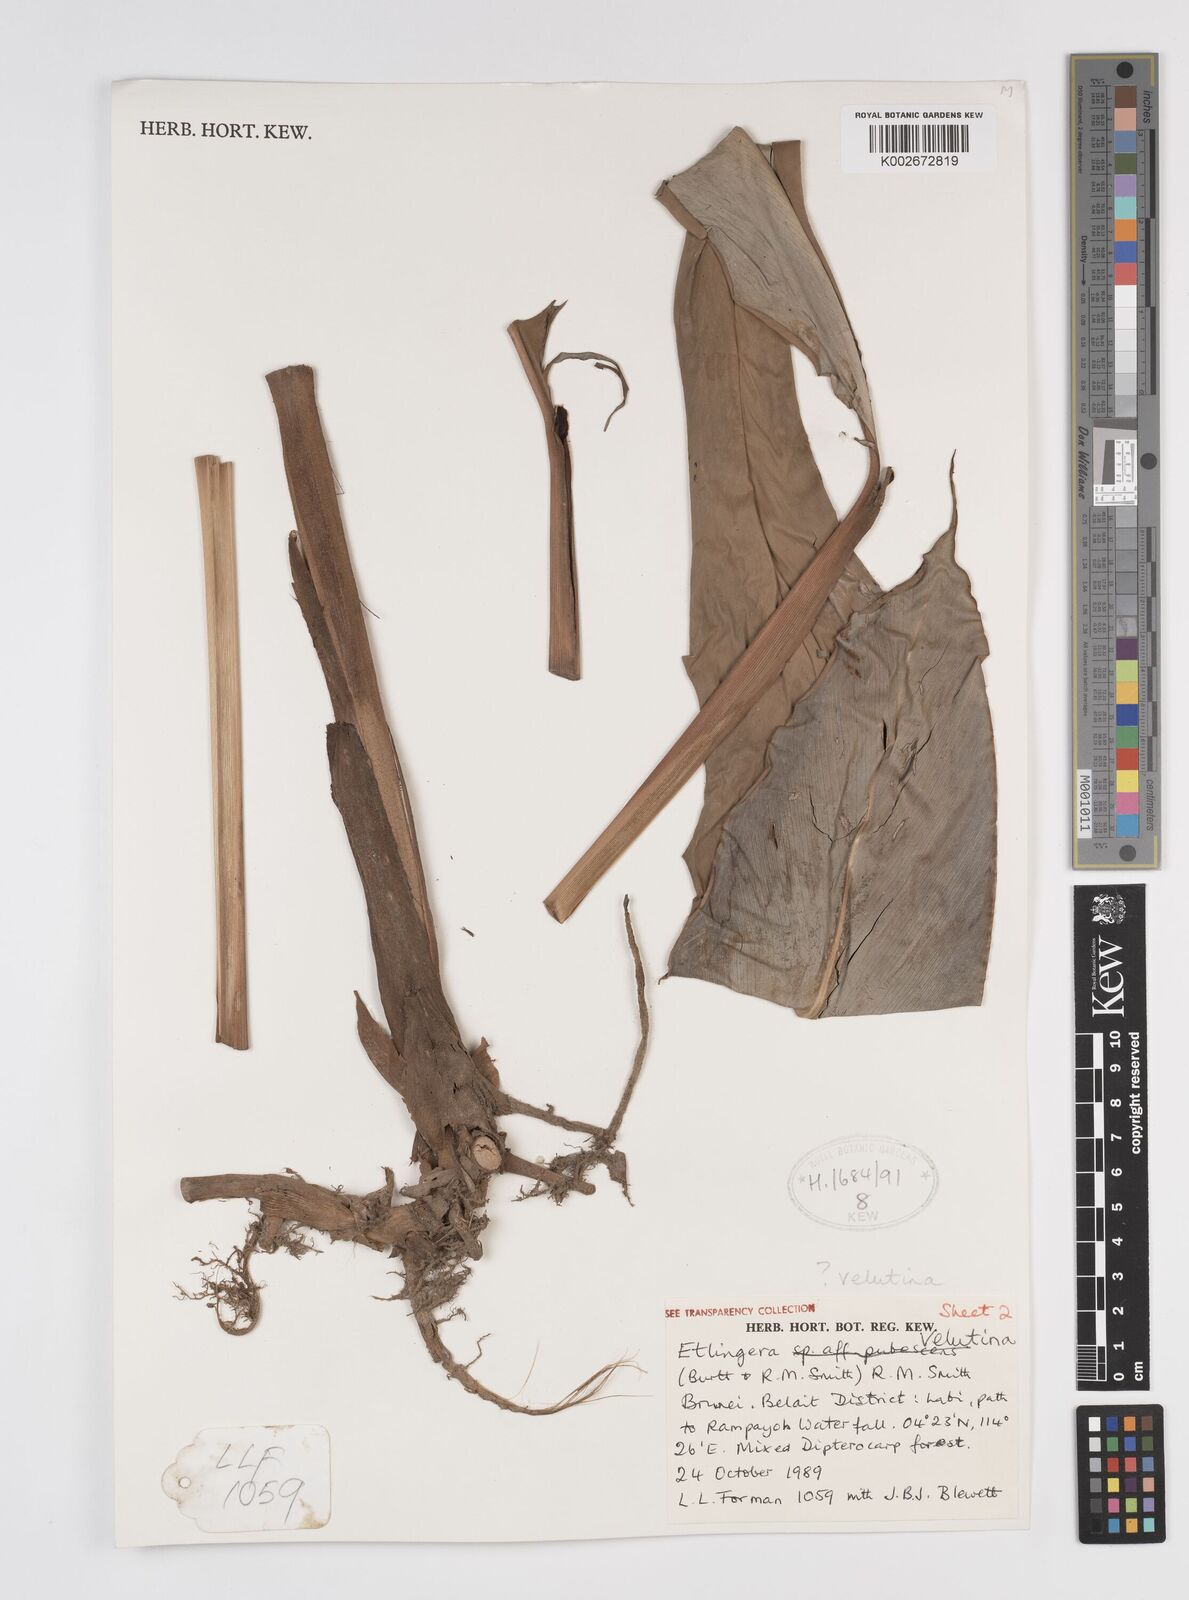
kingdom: Plantae
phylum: Tracheophyta
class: Liliopsida
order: Zingiberales
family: Zingiberaceae
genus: Etlingera
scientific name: Etlingera velutina
